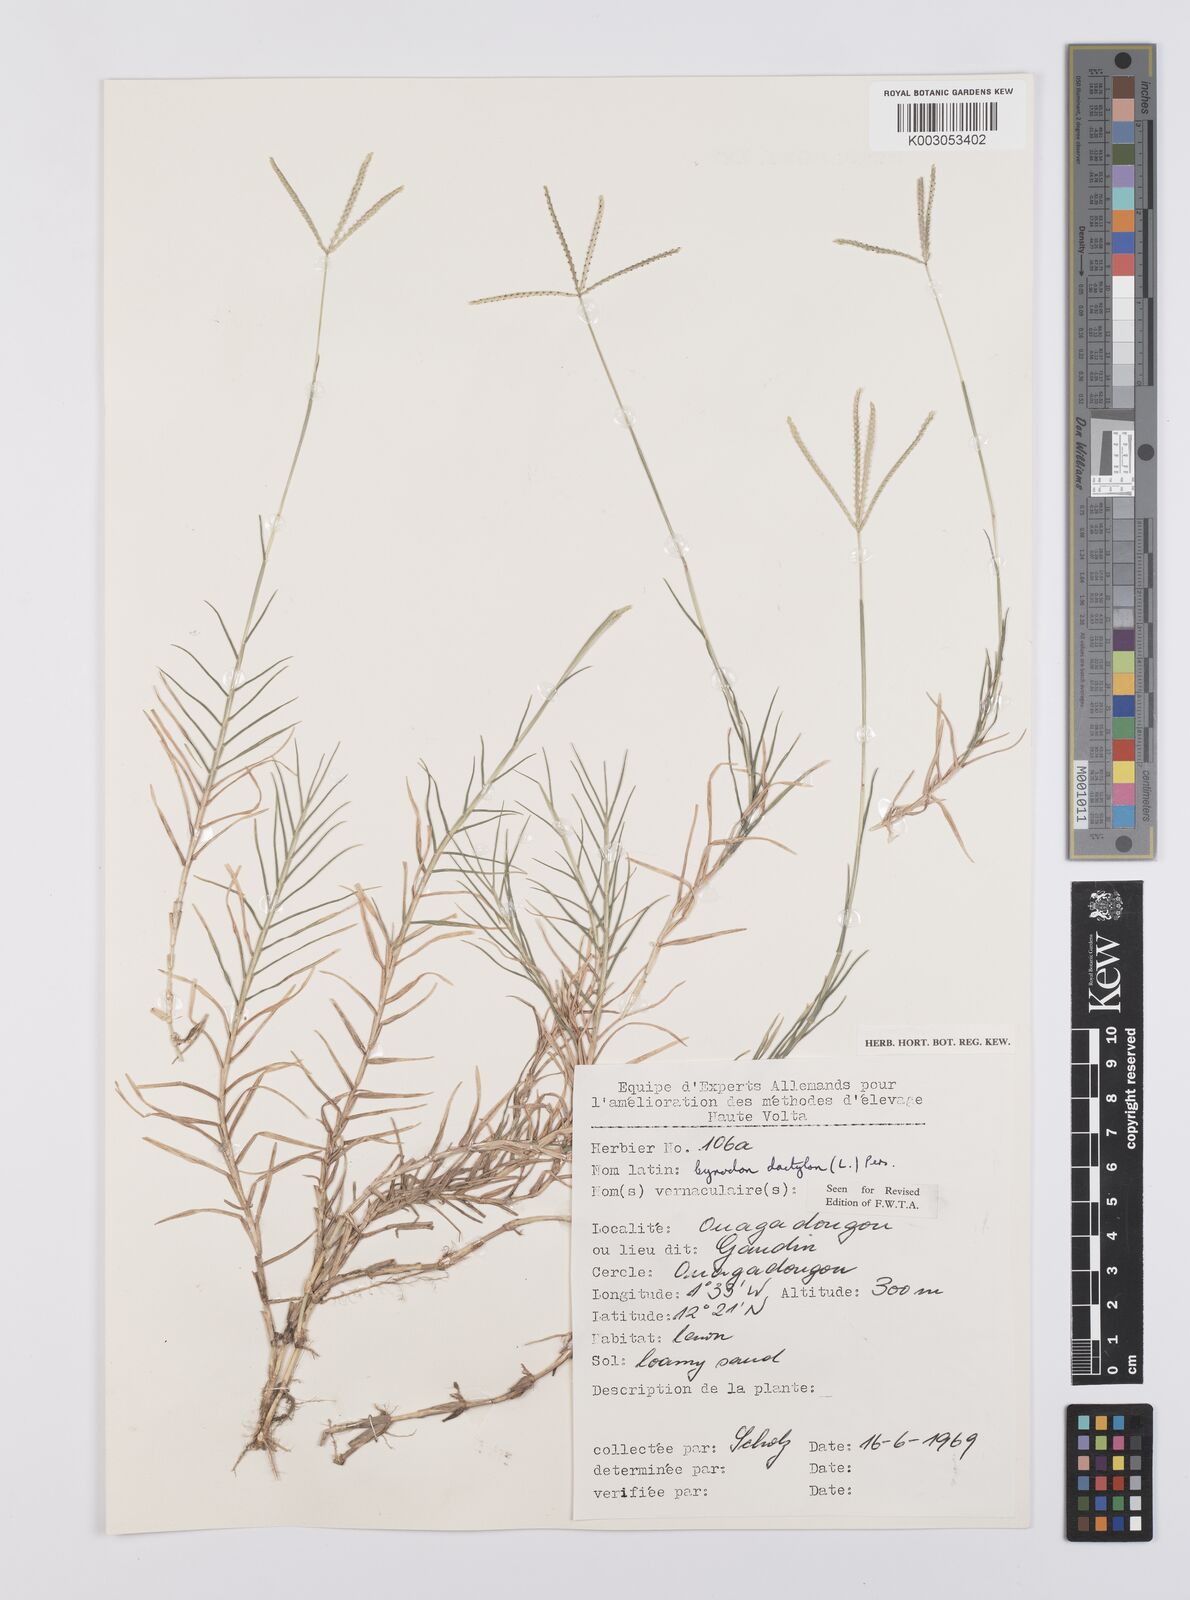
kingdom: Plantae
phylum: Tracheophyta
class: Liliopsida
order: Poales
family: Poaceae
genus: Cynodon
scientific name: Cynodon dactylon
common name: Bermuda grass
